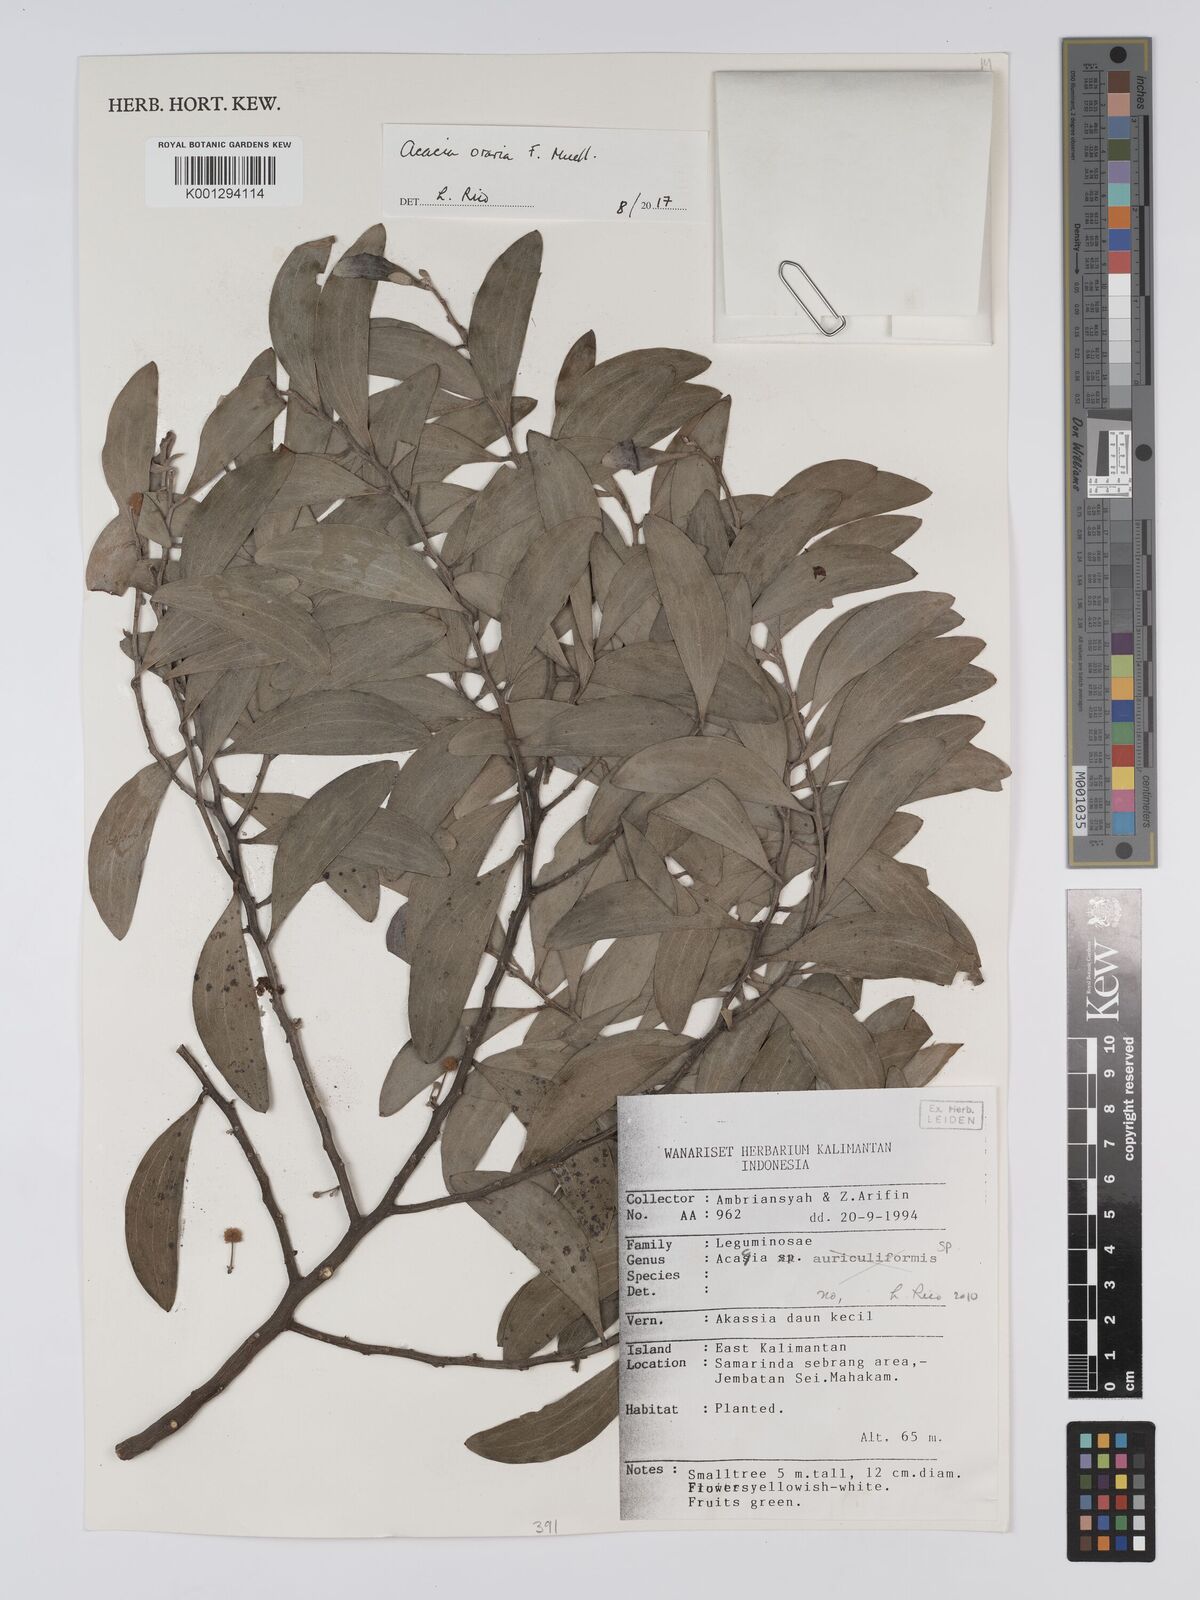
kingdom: Plantae
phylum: Tracheophyta
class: Magnoliopsida
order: Fabales
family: Fabaceae
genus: Acacia
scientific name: Acacia oraria
